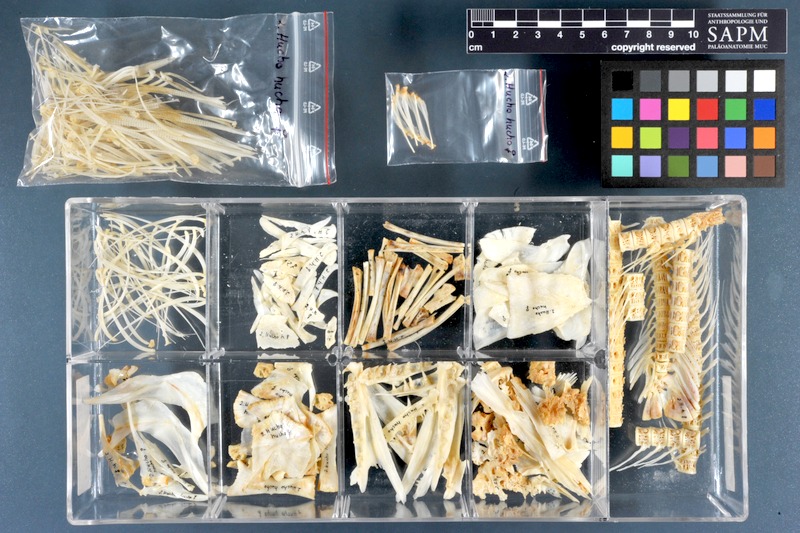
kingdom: Animalia
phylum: Chordata
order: Salmoniformes
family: Salmonidae
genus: Hucho
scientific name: Hucho hucho
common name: Huchen (danube salmon)
